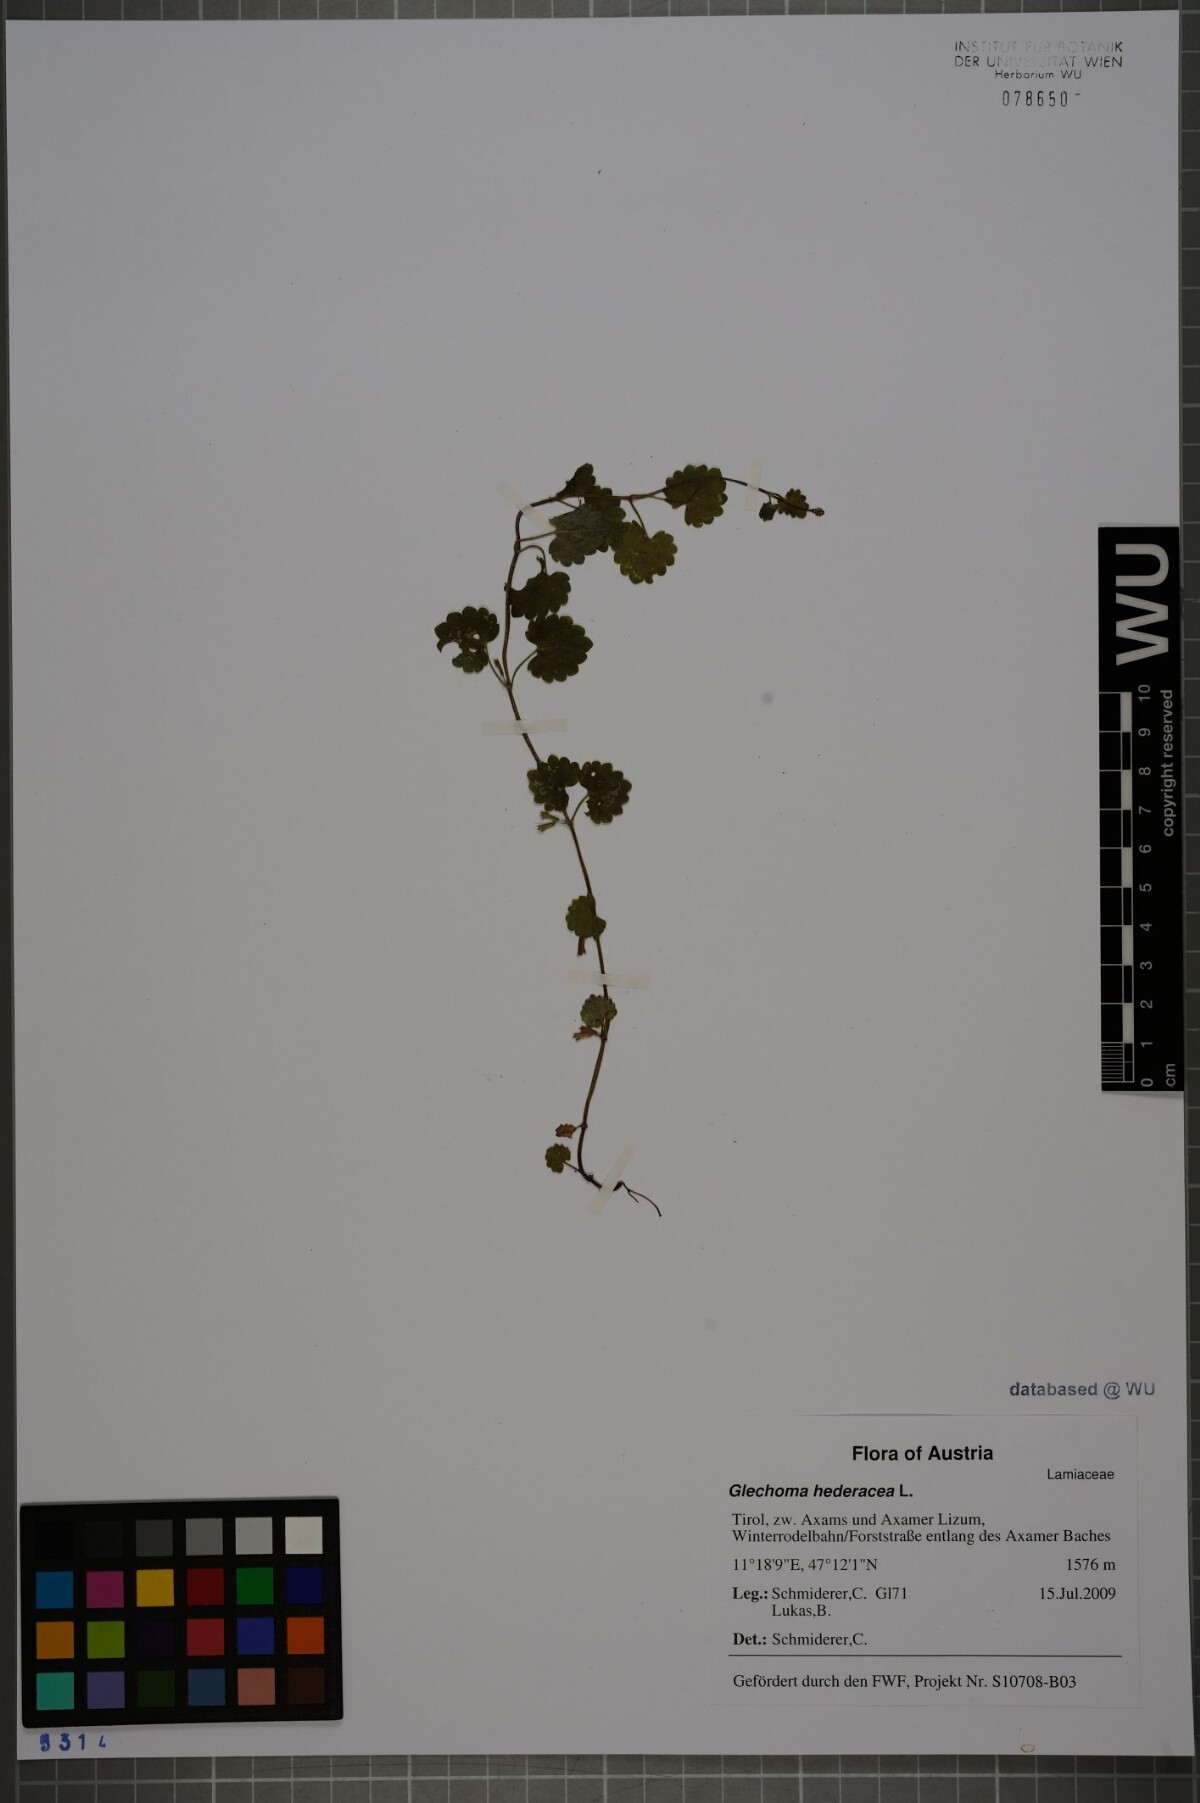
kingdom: Plantae
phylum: Tracheophyta
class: Magnoliopsida
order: Lamiales
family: Lamiaceae
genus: Glechoma
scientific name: Glechoma hederacea
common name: Ground ivy
